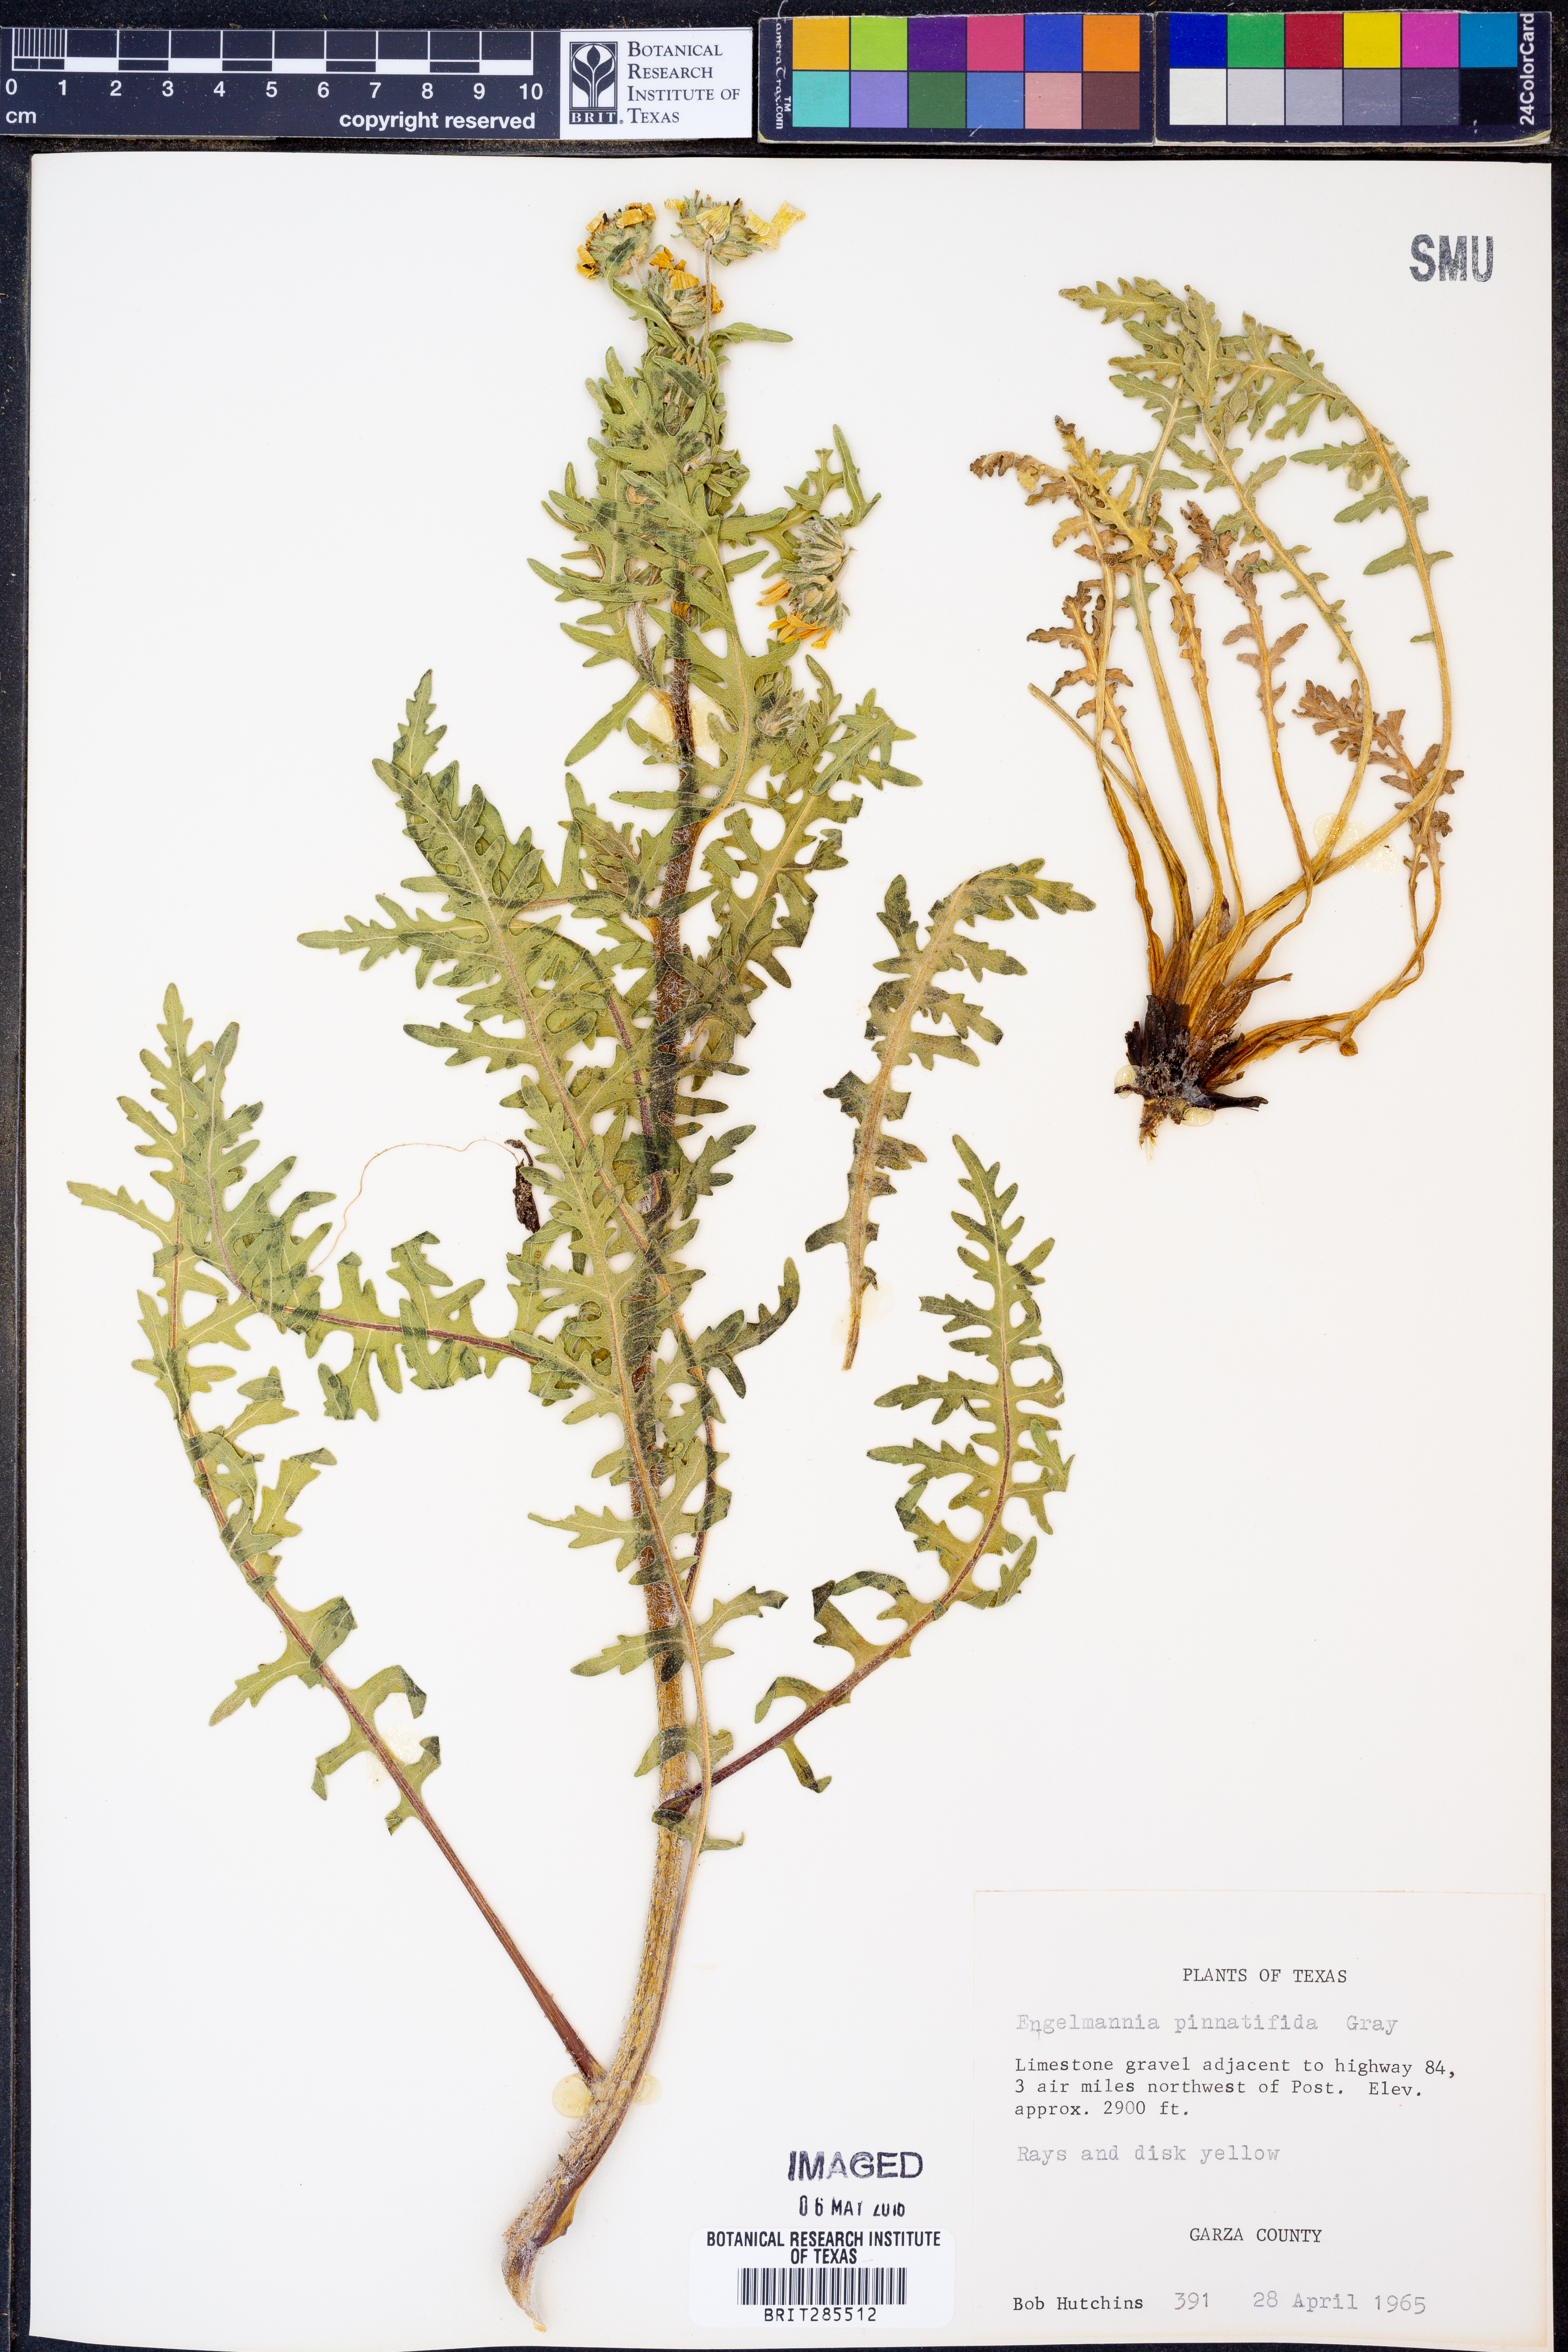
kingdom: Plantae
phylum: Tracheophyta
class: Magnoliopsida
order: Asterales
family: Asteraceae
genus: Engelmannia
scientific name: Engelmannia peristenia
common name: Engelmann's daisy
